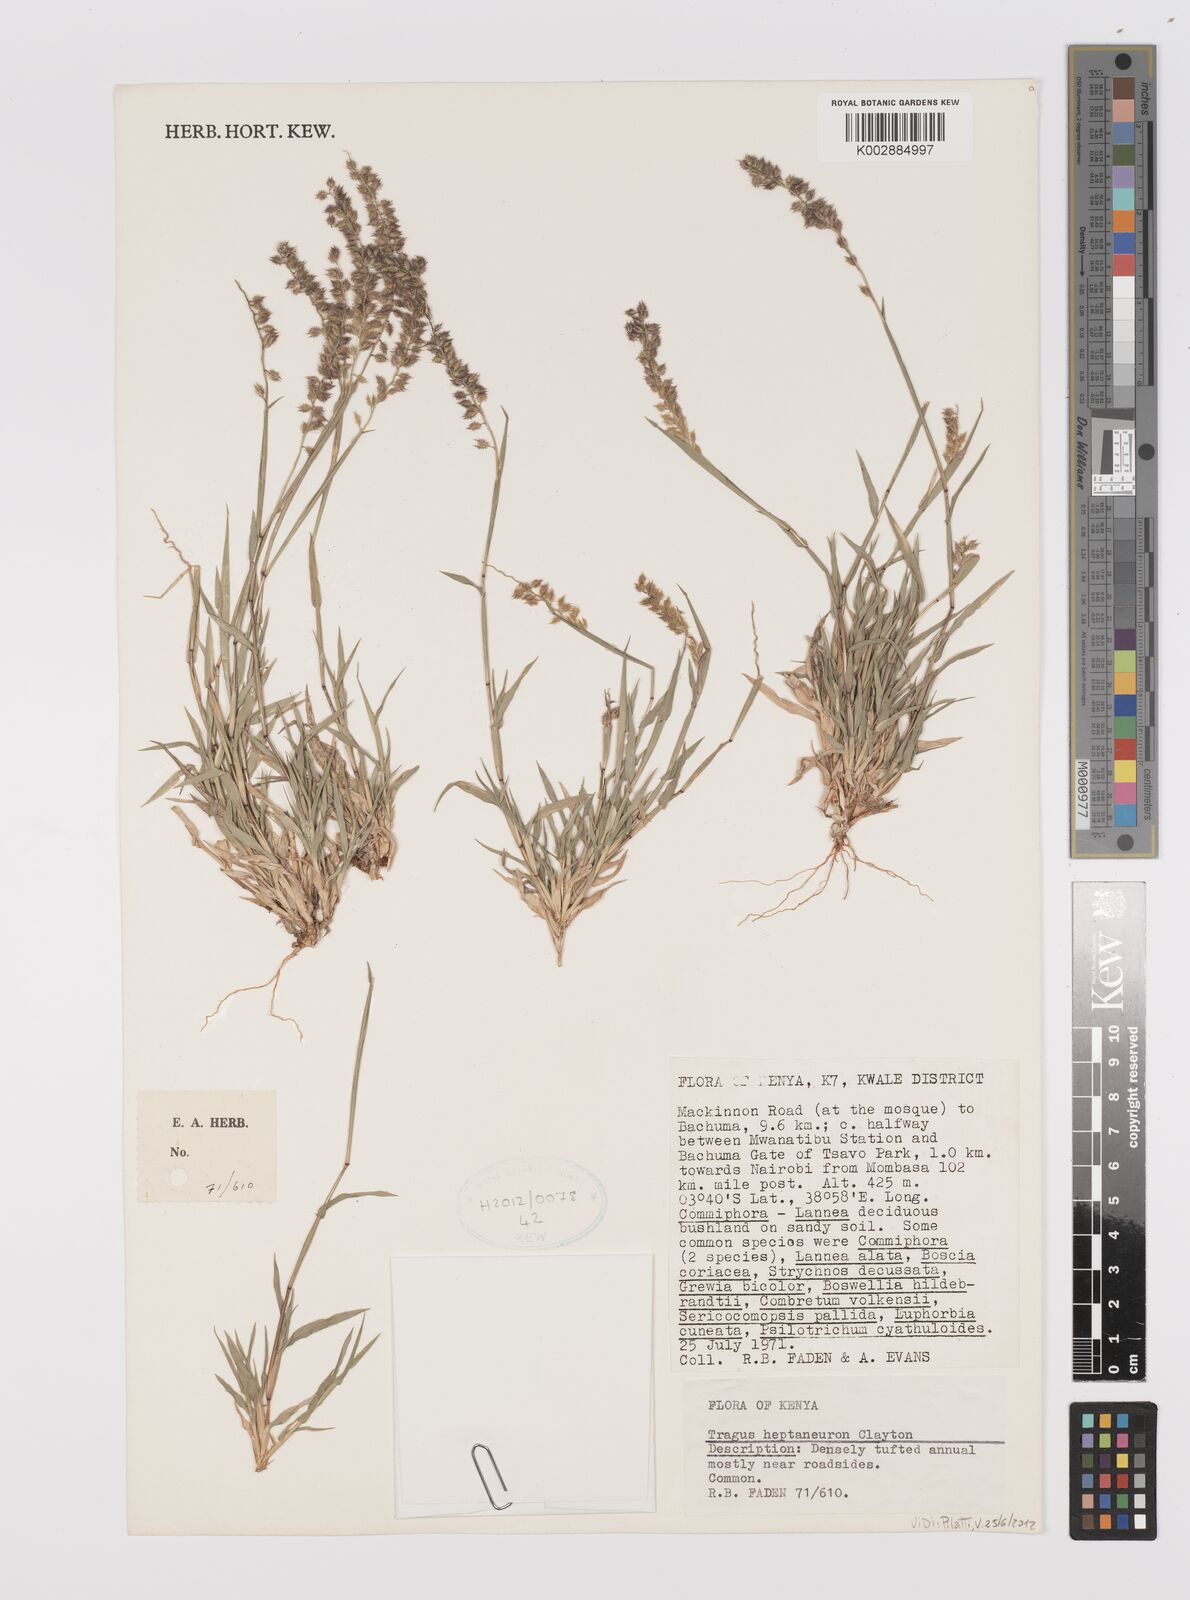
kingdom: Plantae
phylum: Tracheophyta
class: Liliopsida
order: Poales
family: Poaceae
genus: Tragus
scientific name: Tragus heptaneuron
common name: Kenya bur grass
